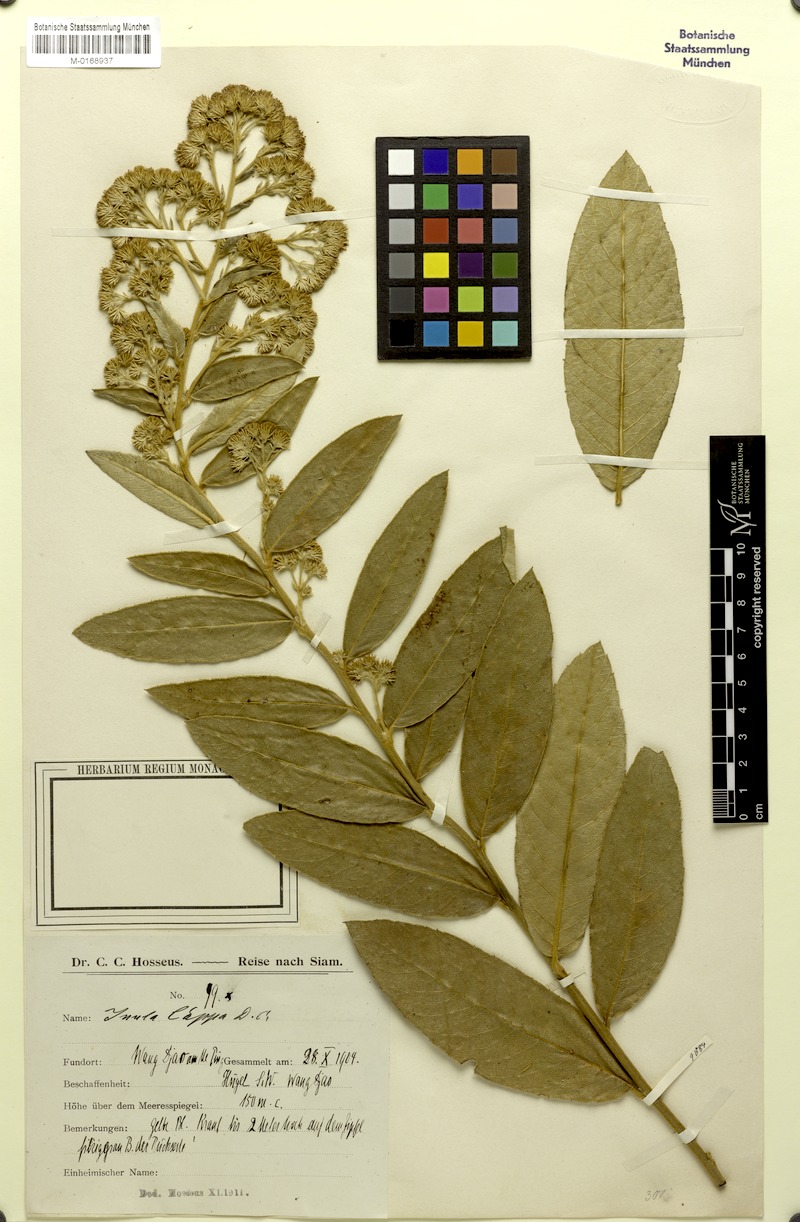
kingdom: Plantae
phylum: Tracheophyta
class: Magnoliopsida
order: Asterales
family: Asteraceae
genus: Duhaldea
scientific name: Duhaldea cappa
